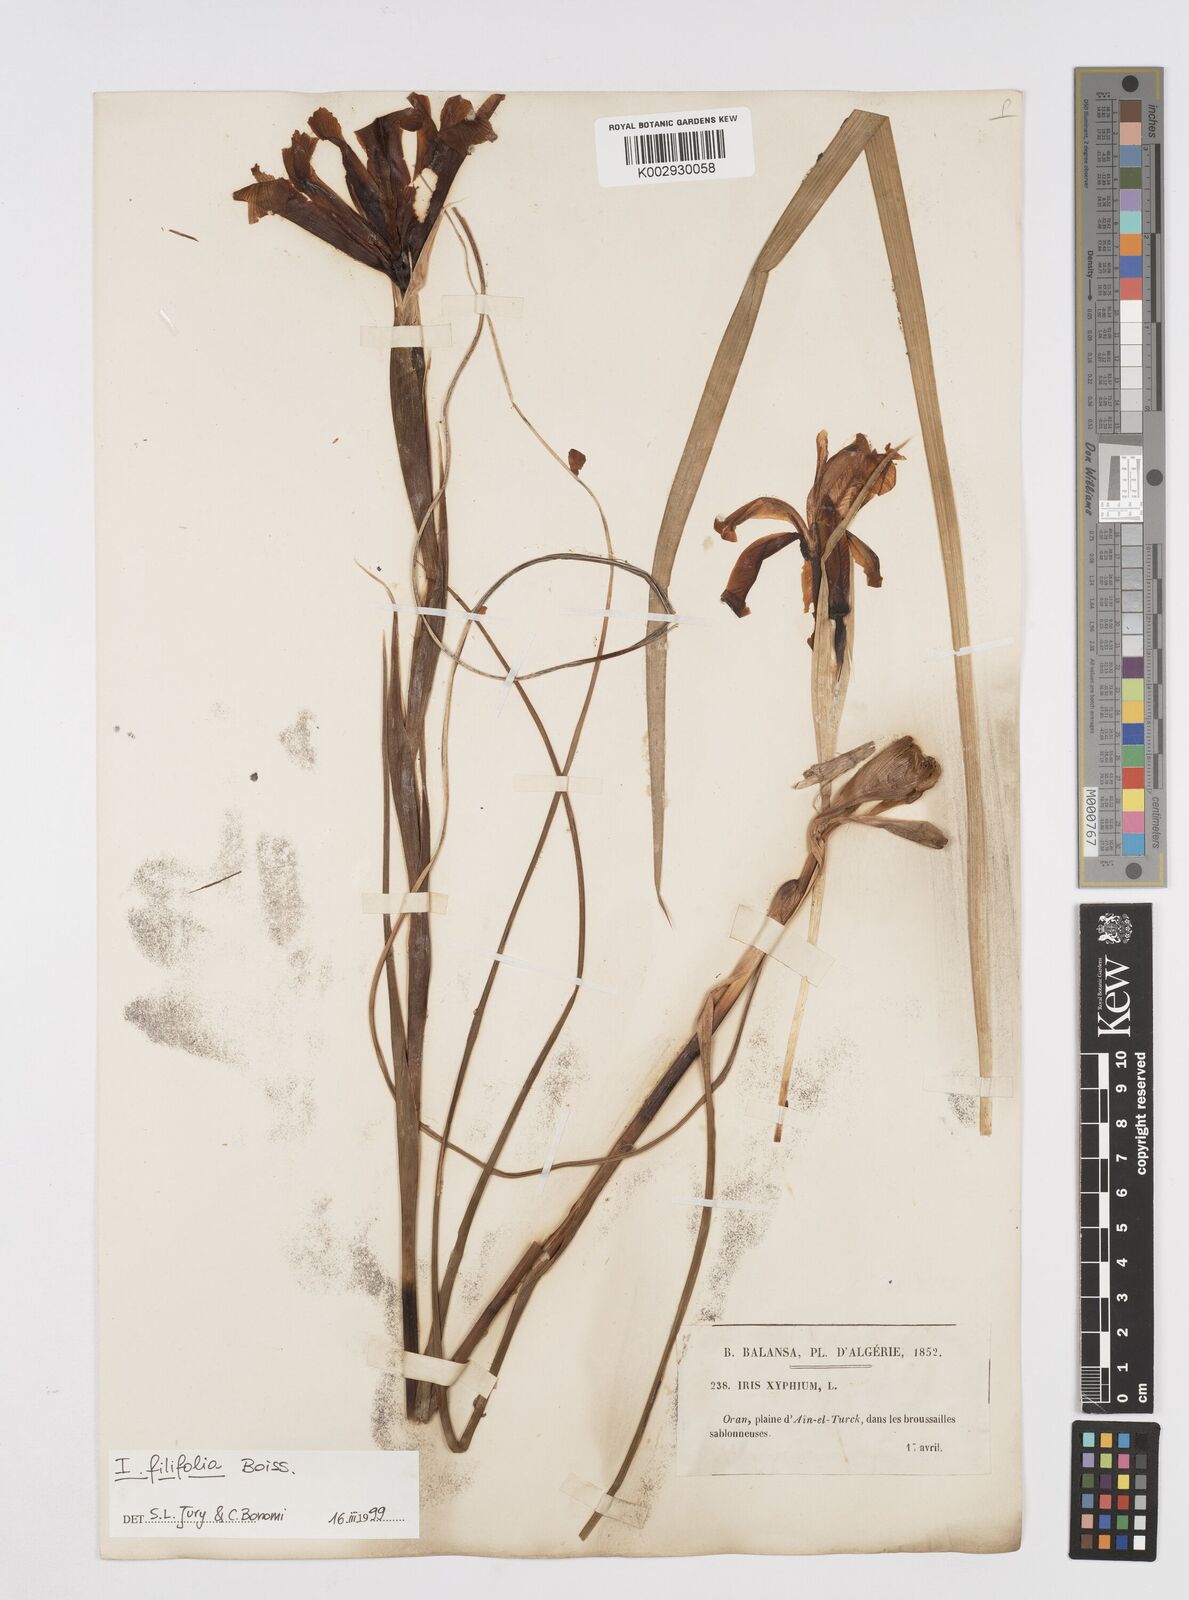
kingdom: Plantae
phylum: Tracheophyta
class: Liliopsida
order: Asparagales
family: Iridaceae
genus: Iris
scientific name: Iris filifolia
